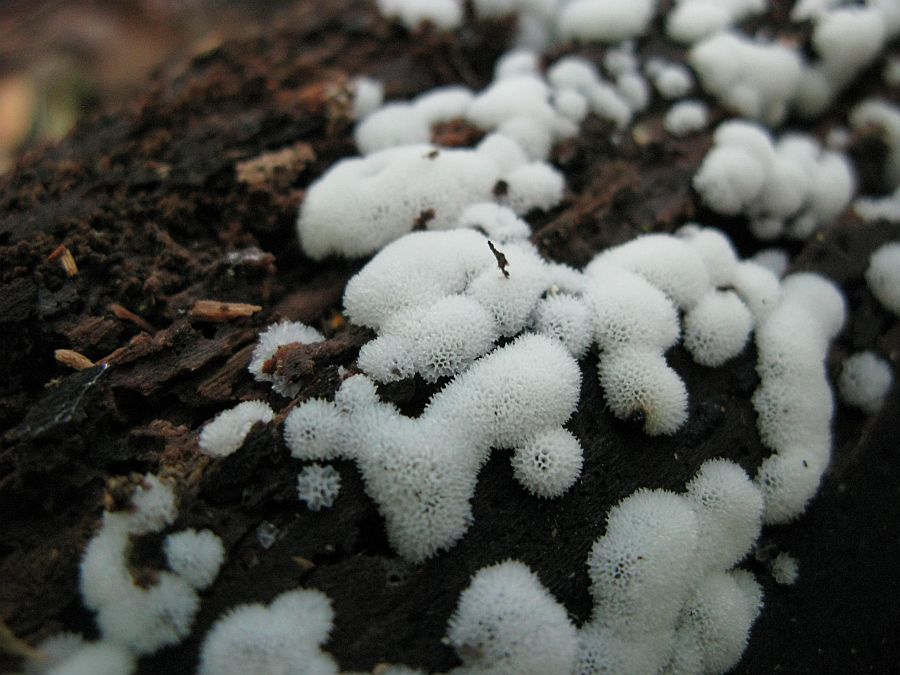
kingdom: Protozoa
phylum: Mycetozoa
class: Protosteliomycetes
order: Ceratiomyxales
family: Ceratiomyxaceae
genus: Ceratiomyxa
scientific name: Ceratiomyxa fruticulosa
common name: Honeycomb coral slime mold
